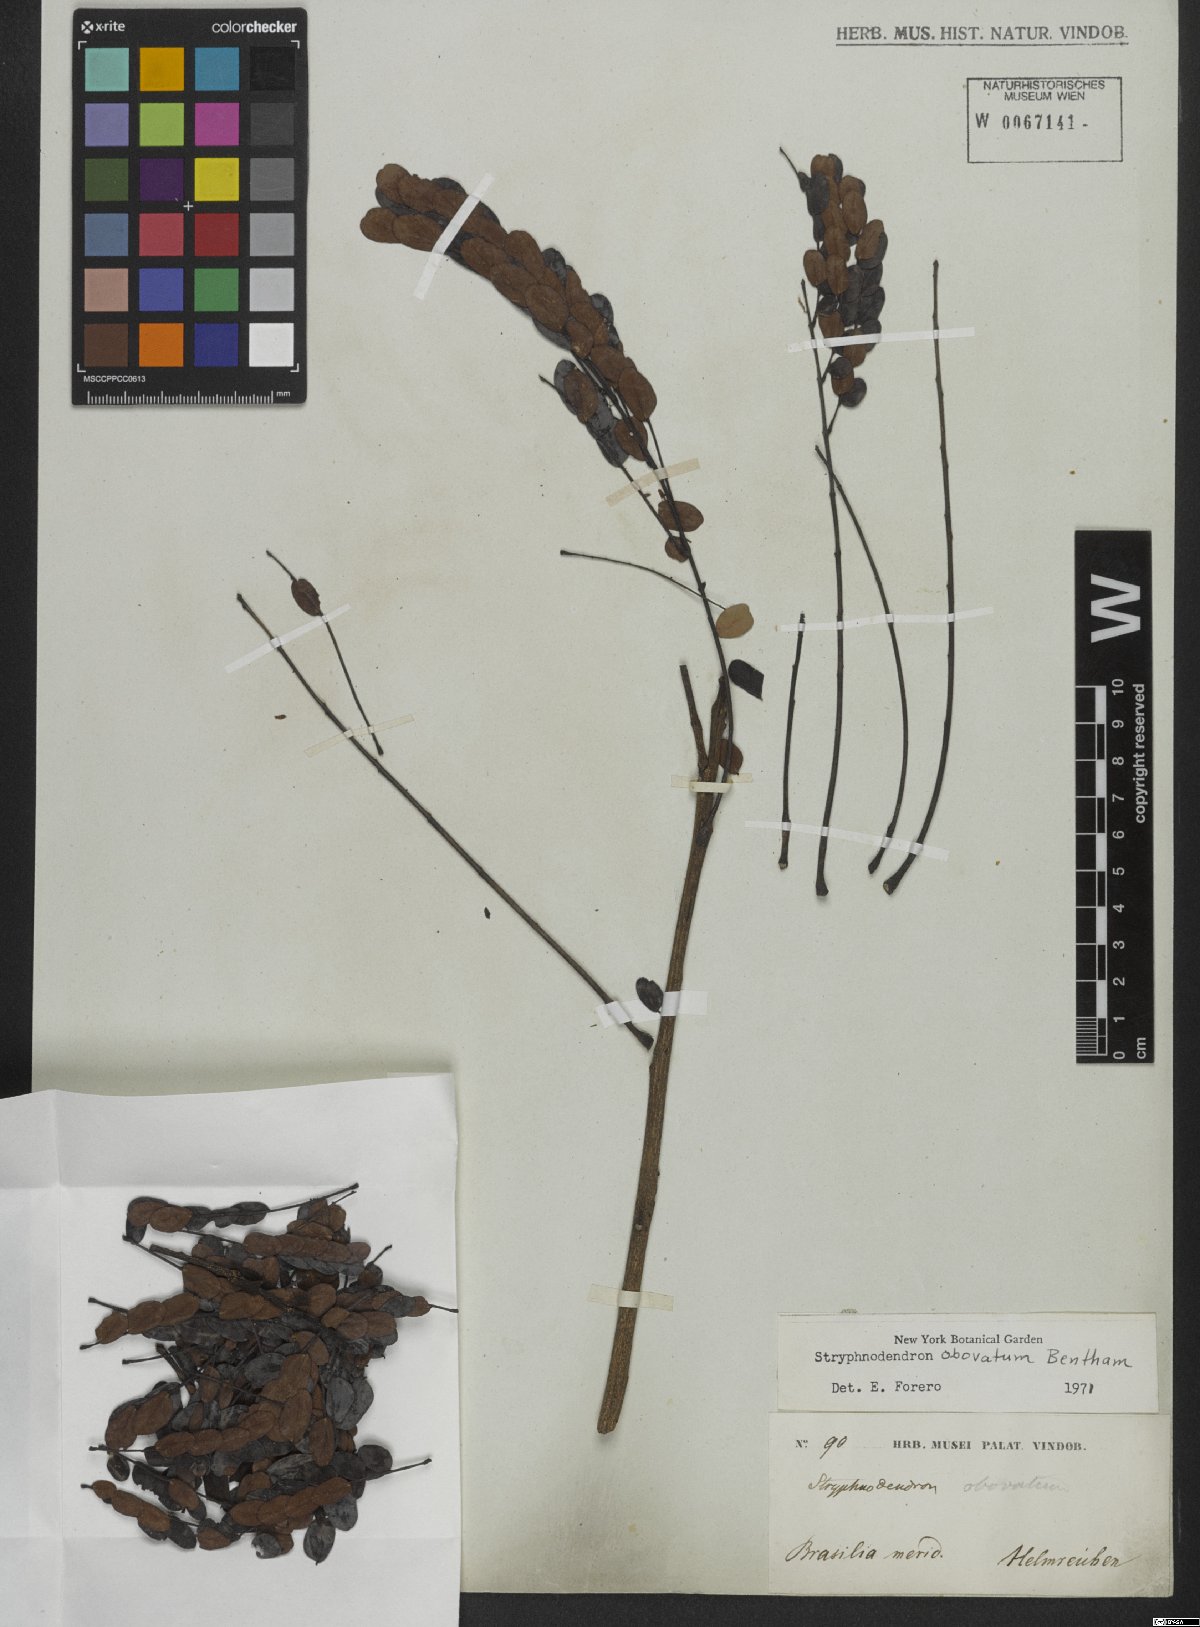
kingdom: Plantae
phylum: Tracheophyta
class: Magnoliopsida
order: Fabales
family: Fabaceae
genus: Stryphnodendron
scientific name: Stryphnodendron rotundifolium
